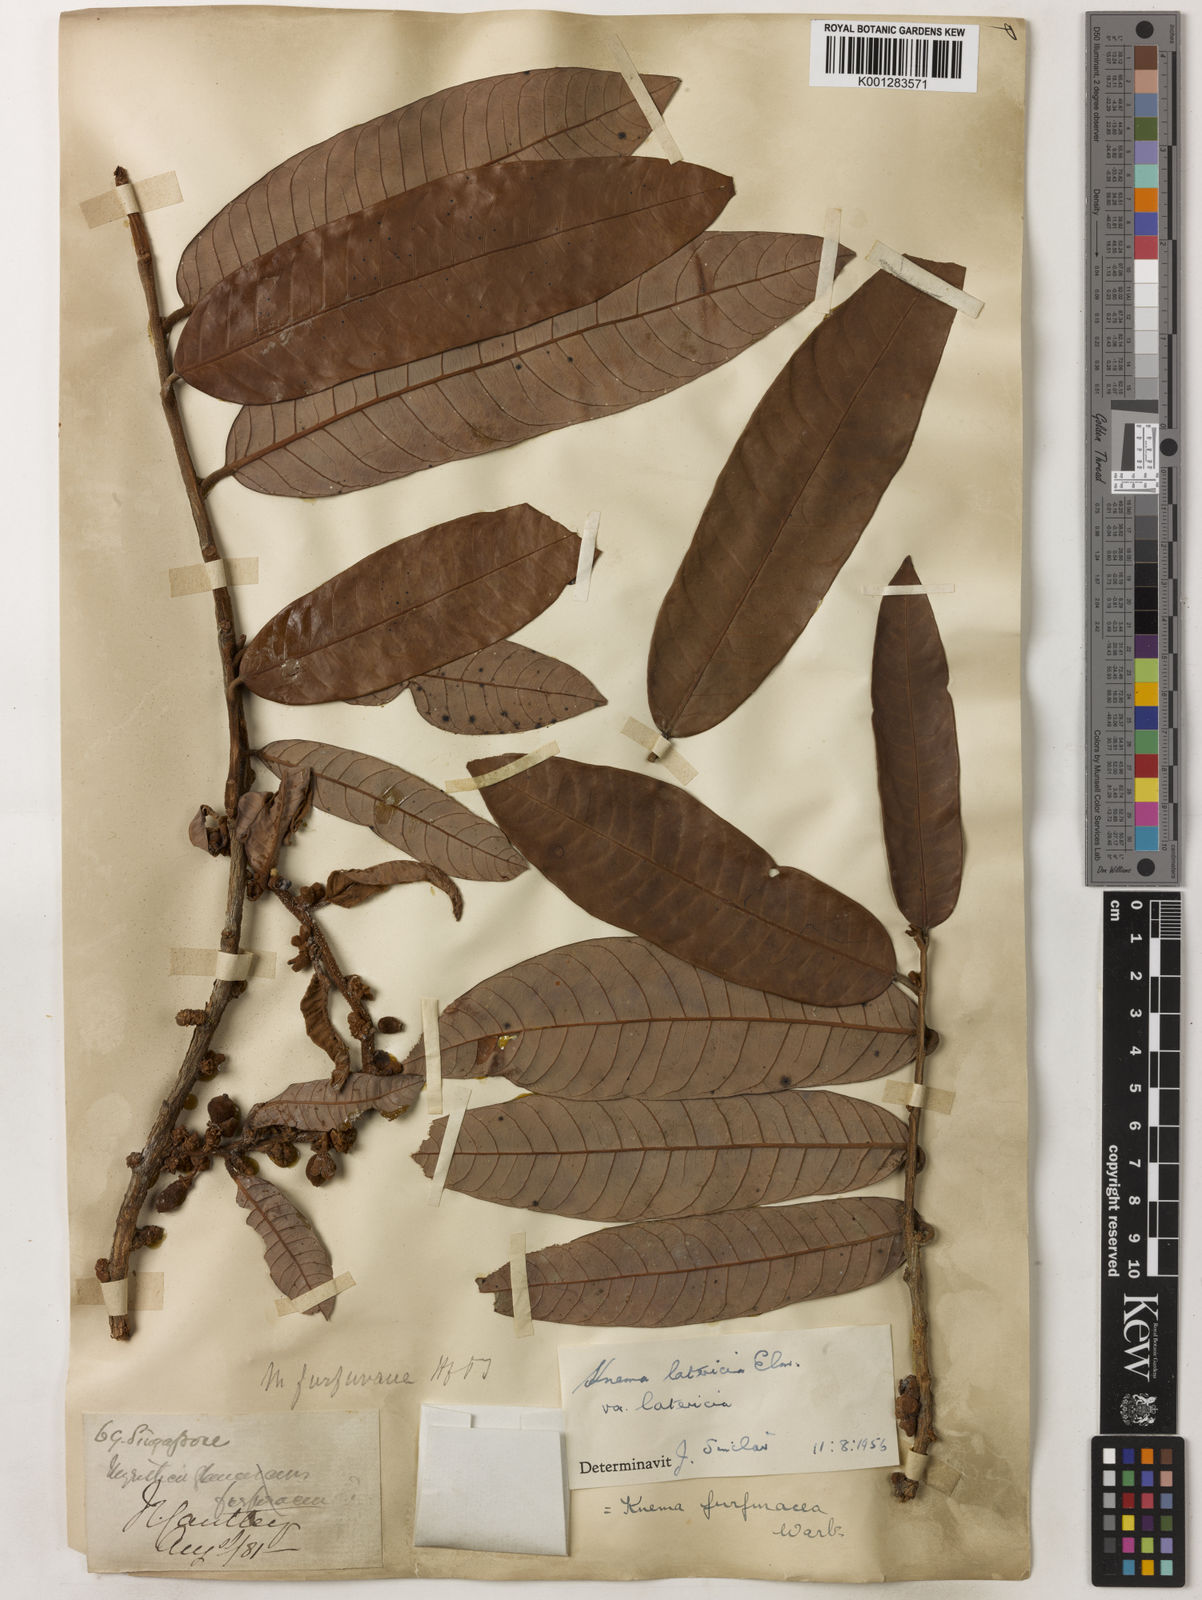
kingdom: Plantae
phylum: Tracheophyta
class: Magnoliopsida
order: Magnoliales
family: Myristicaceae
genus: Knema
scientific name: Knema latericia
